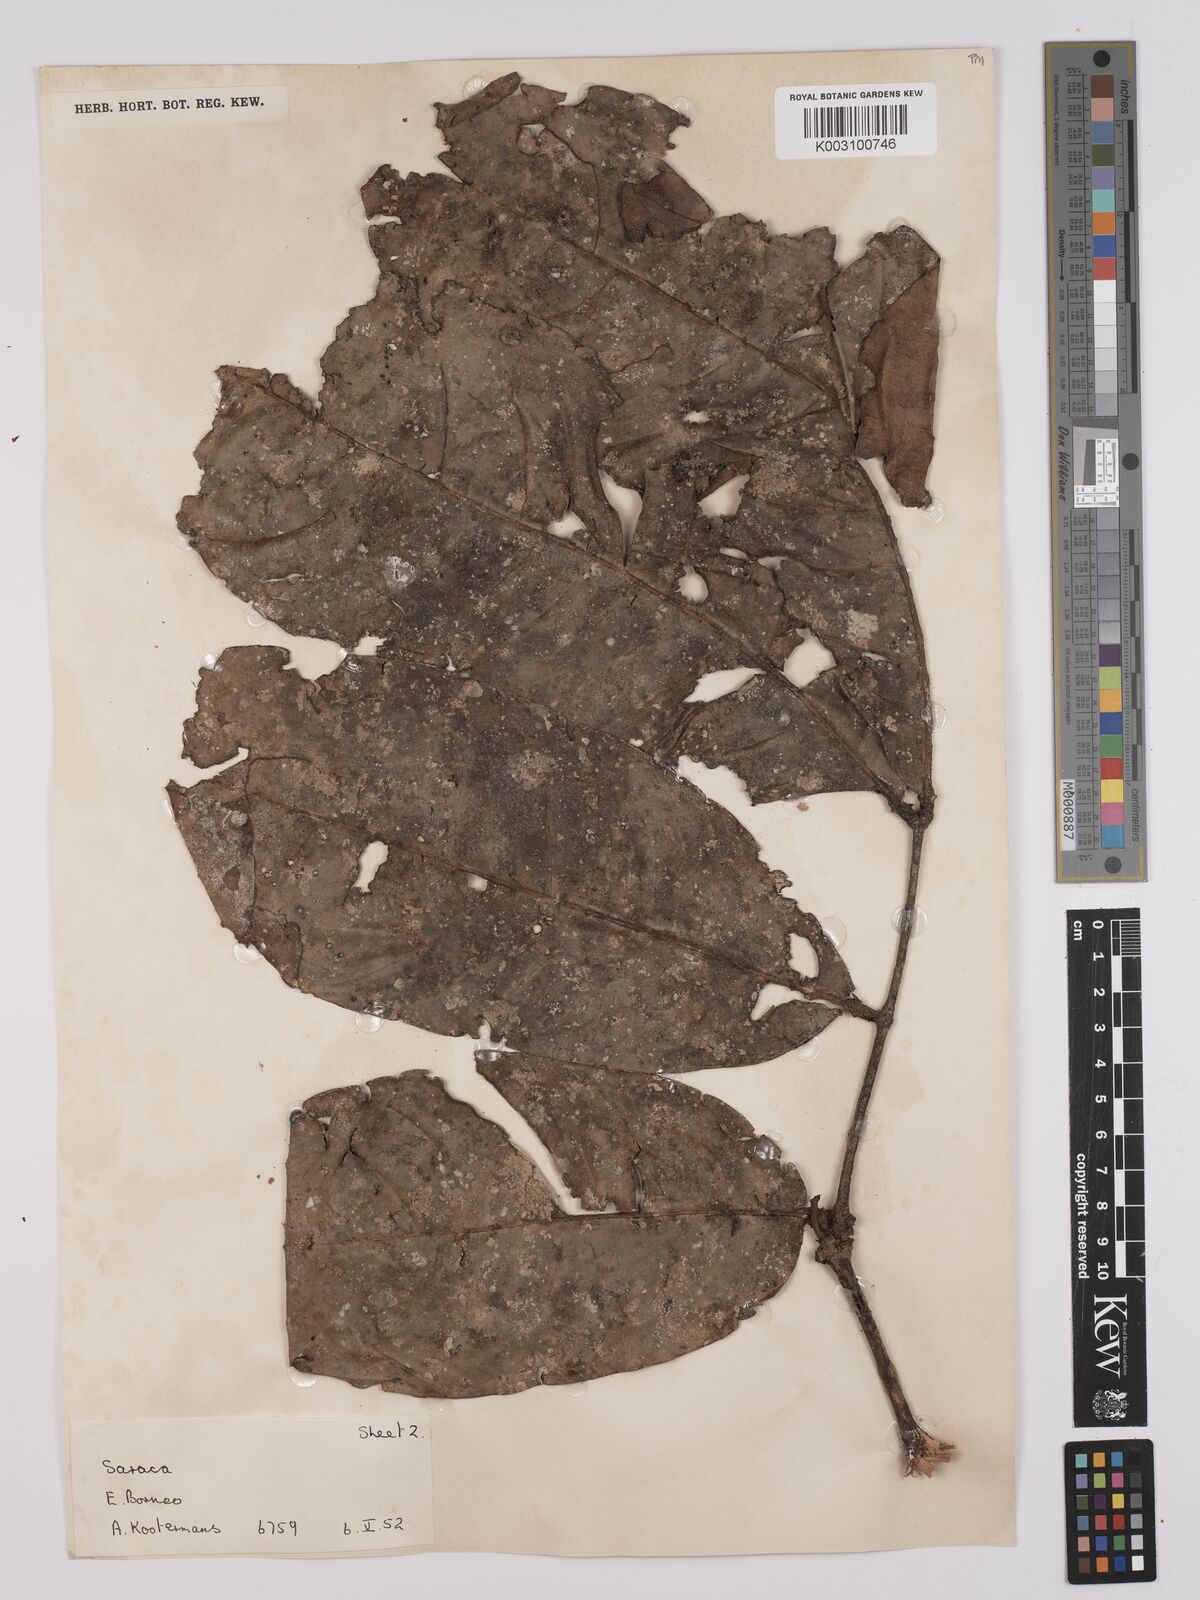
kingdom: Plantae
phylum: Tracheophyta
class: Magnoliopsida
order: Fabales
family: Fabaceae
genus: Saraca
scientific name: Saraca declinata
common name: Red saraca
